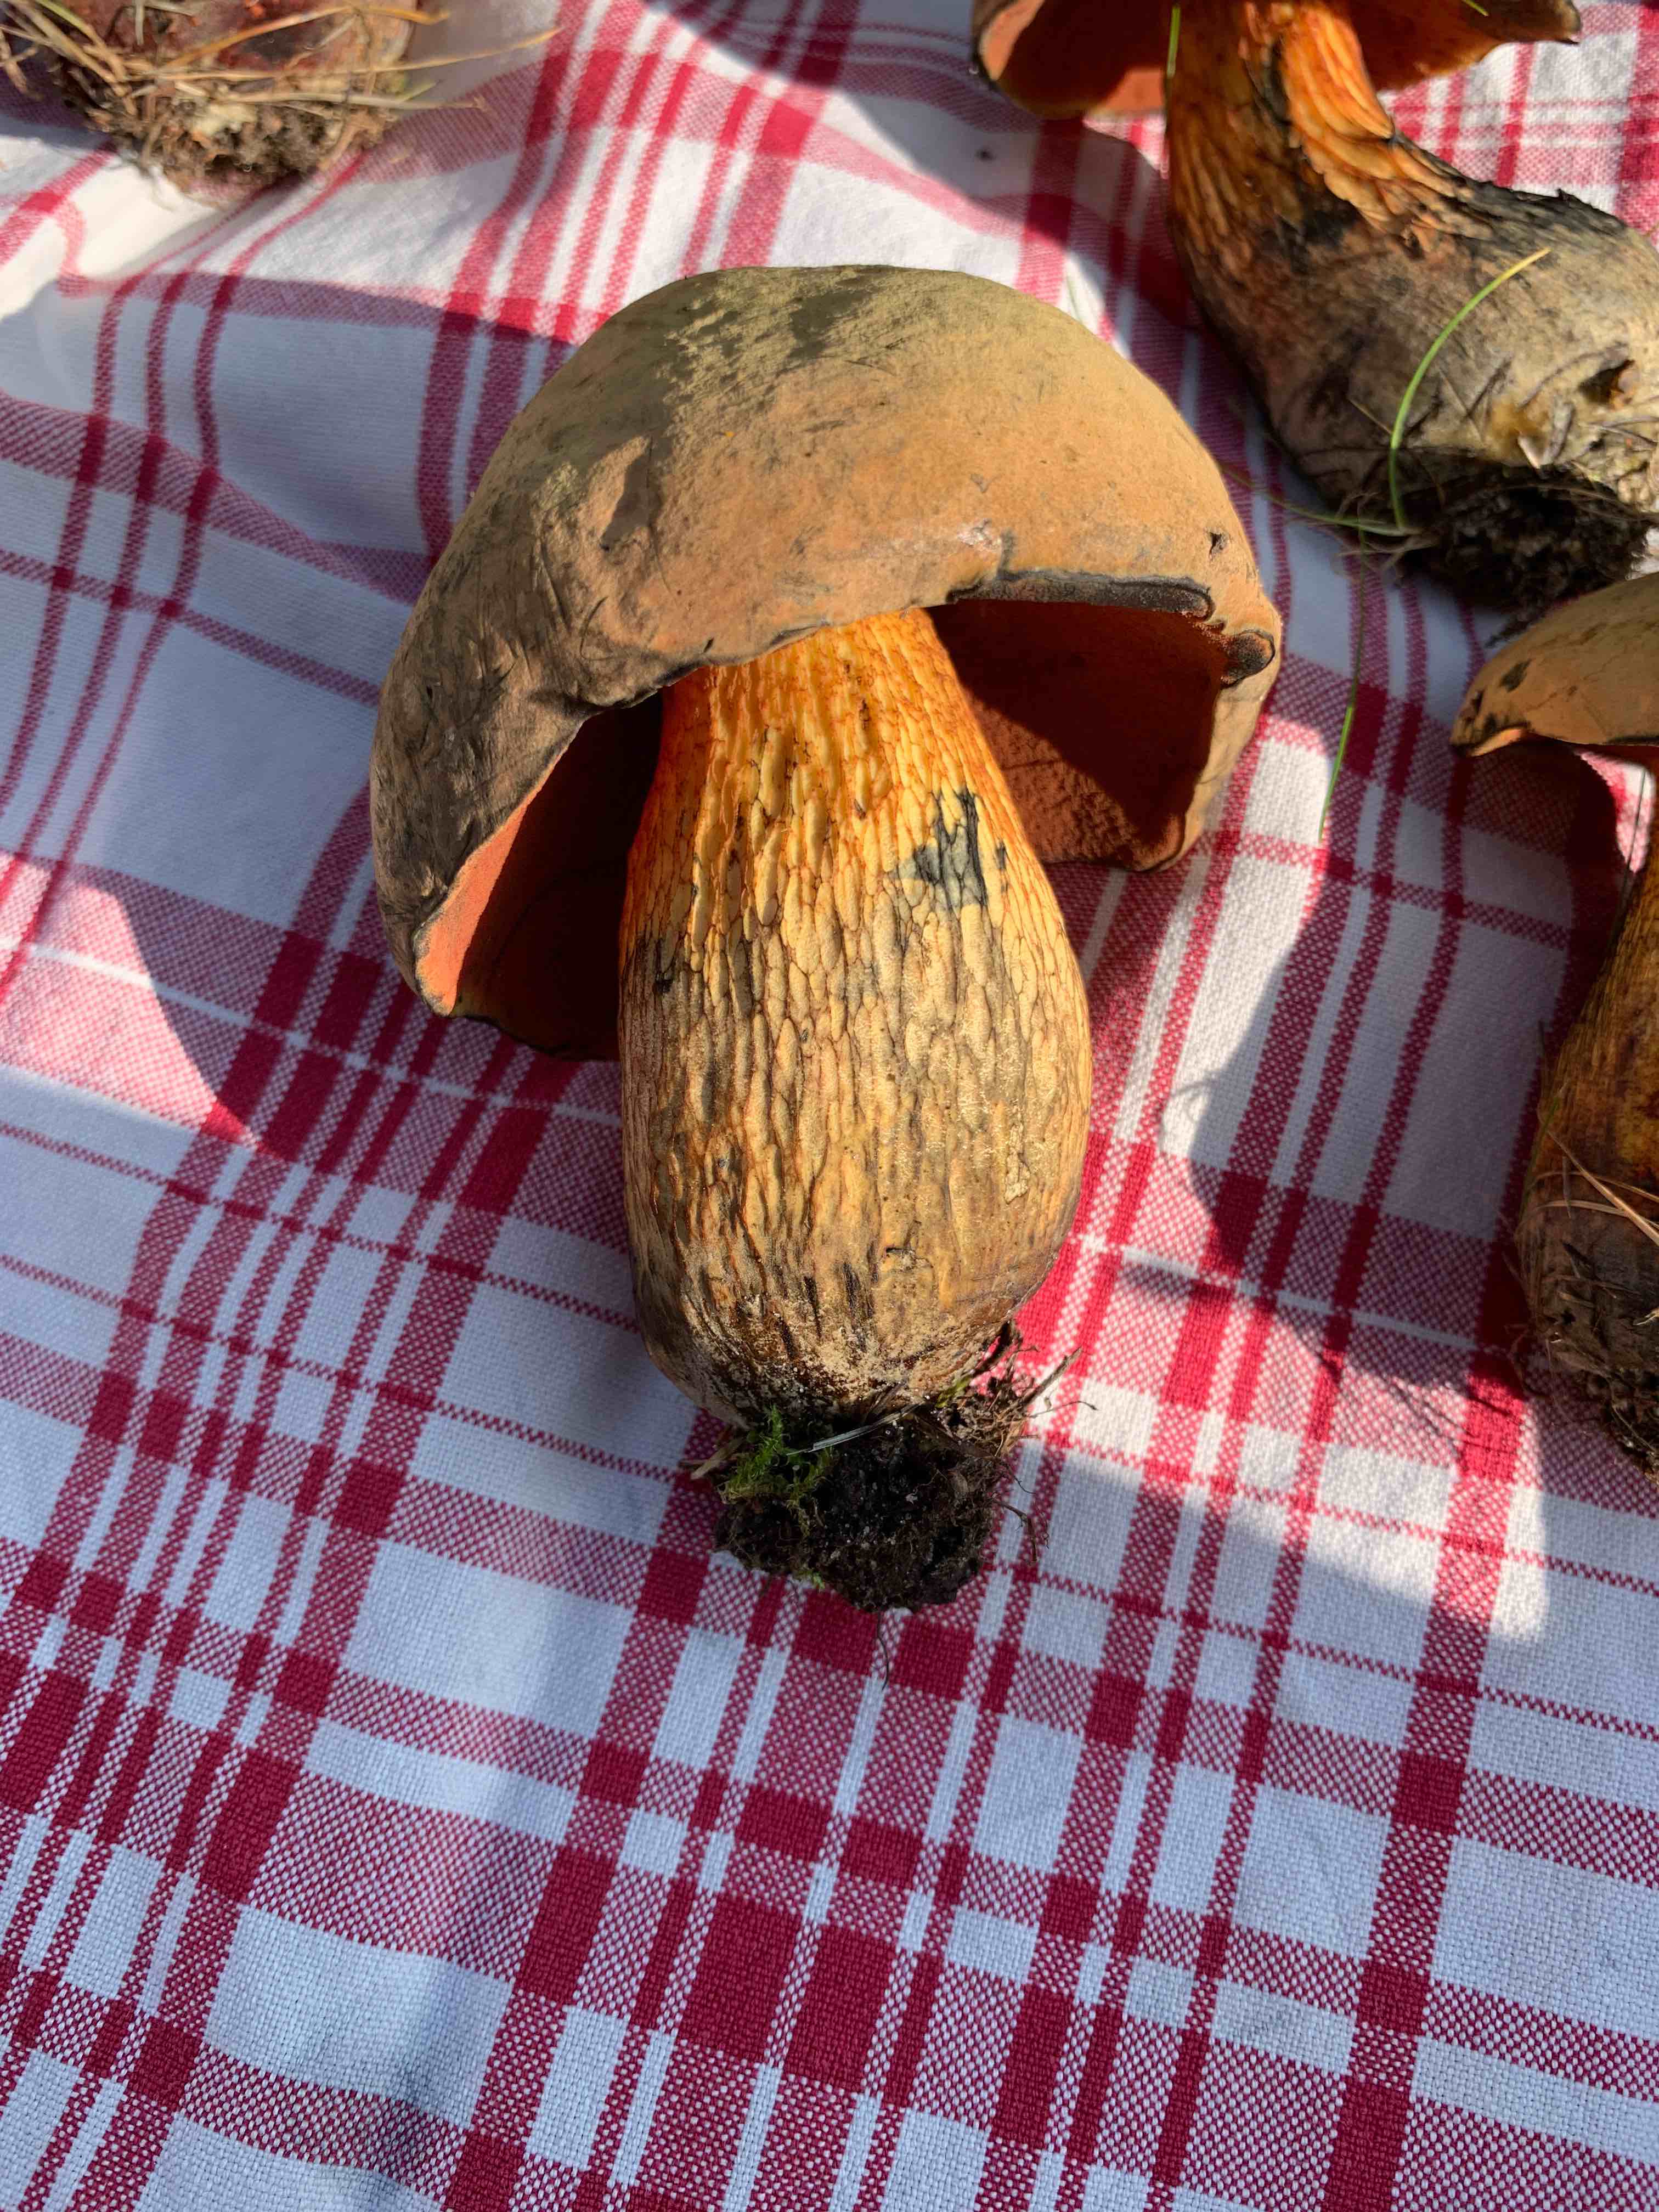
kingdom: Fungi
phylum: Basidiomycota
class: Agaricomycetes
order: Boletales
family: Boletaceae
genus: Suillellus
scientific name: Suillellus luridus
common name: netstokket indigorørhat
